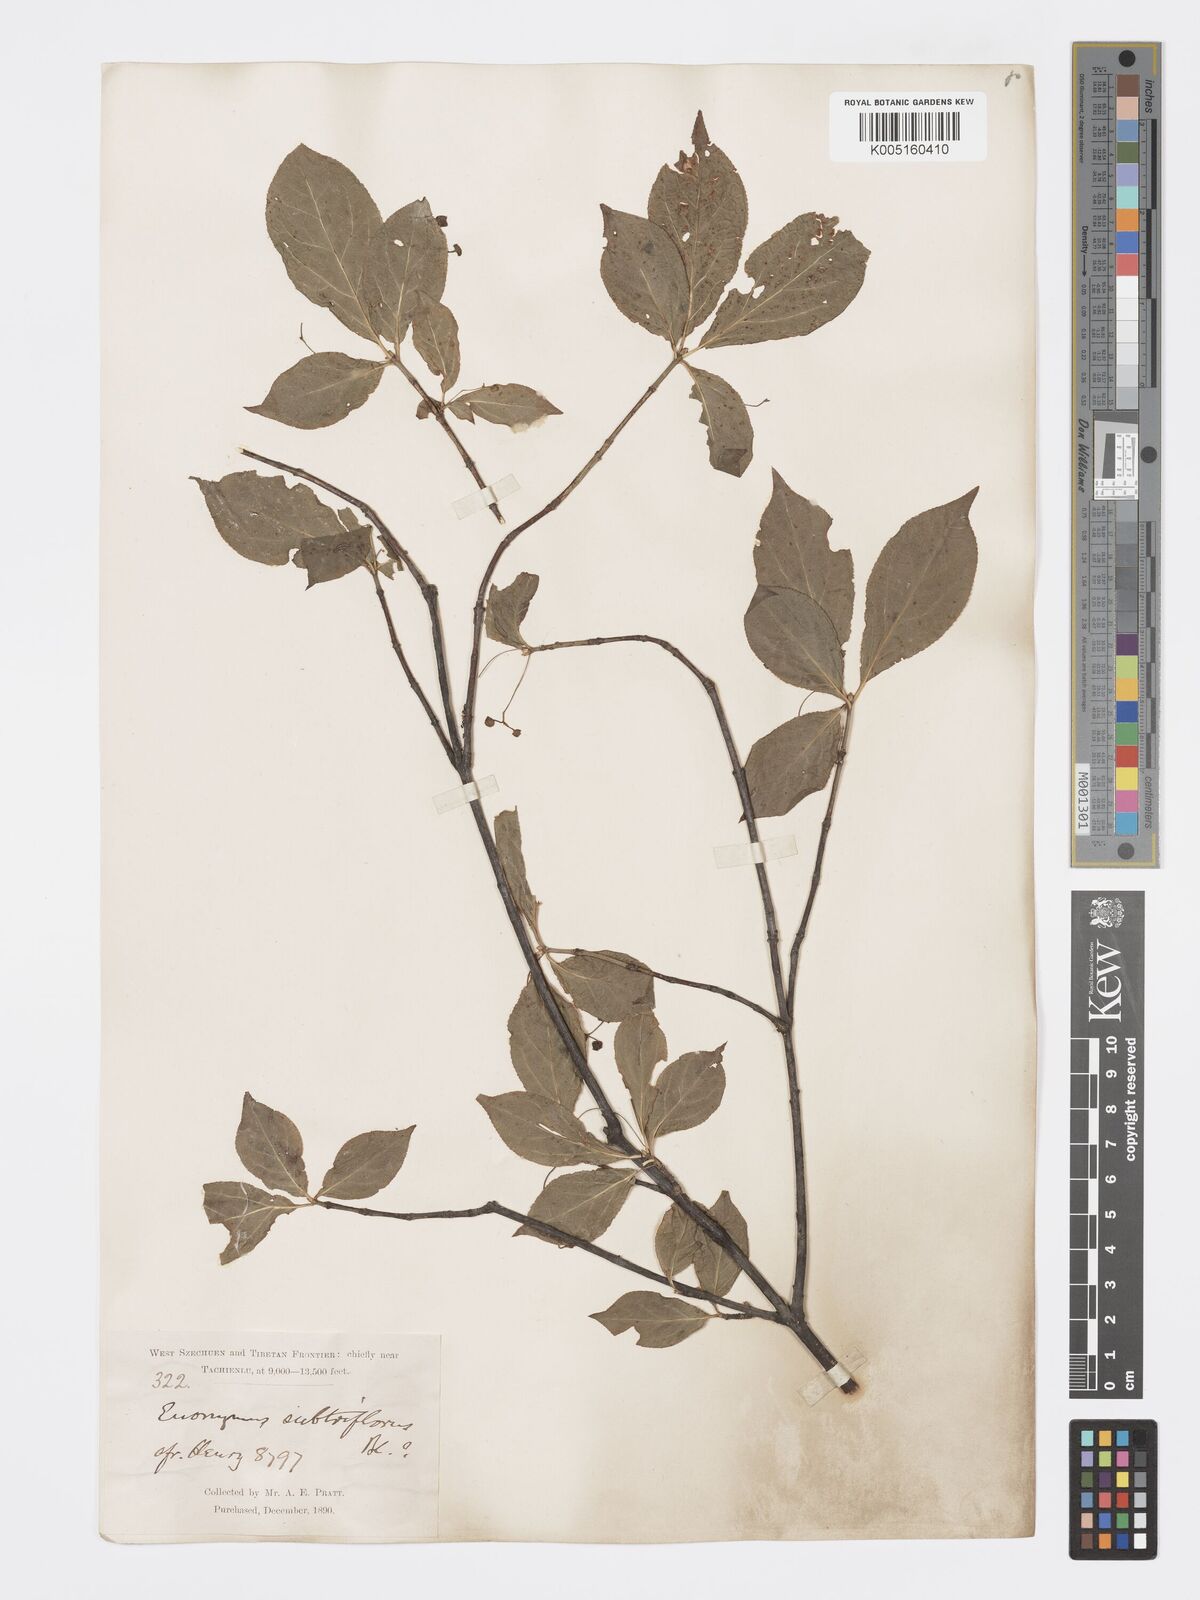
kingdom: Plantae
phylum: Tracheophyta
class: Magnoliopsida
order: Celastrales
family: Celastraceae
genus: Euonymus
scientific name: Euonymus
